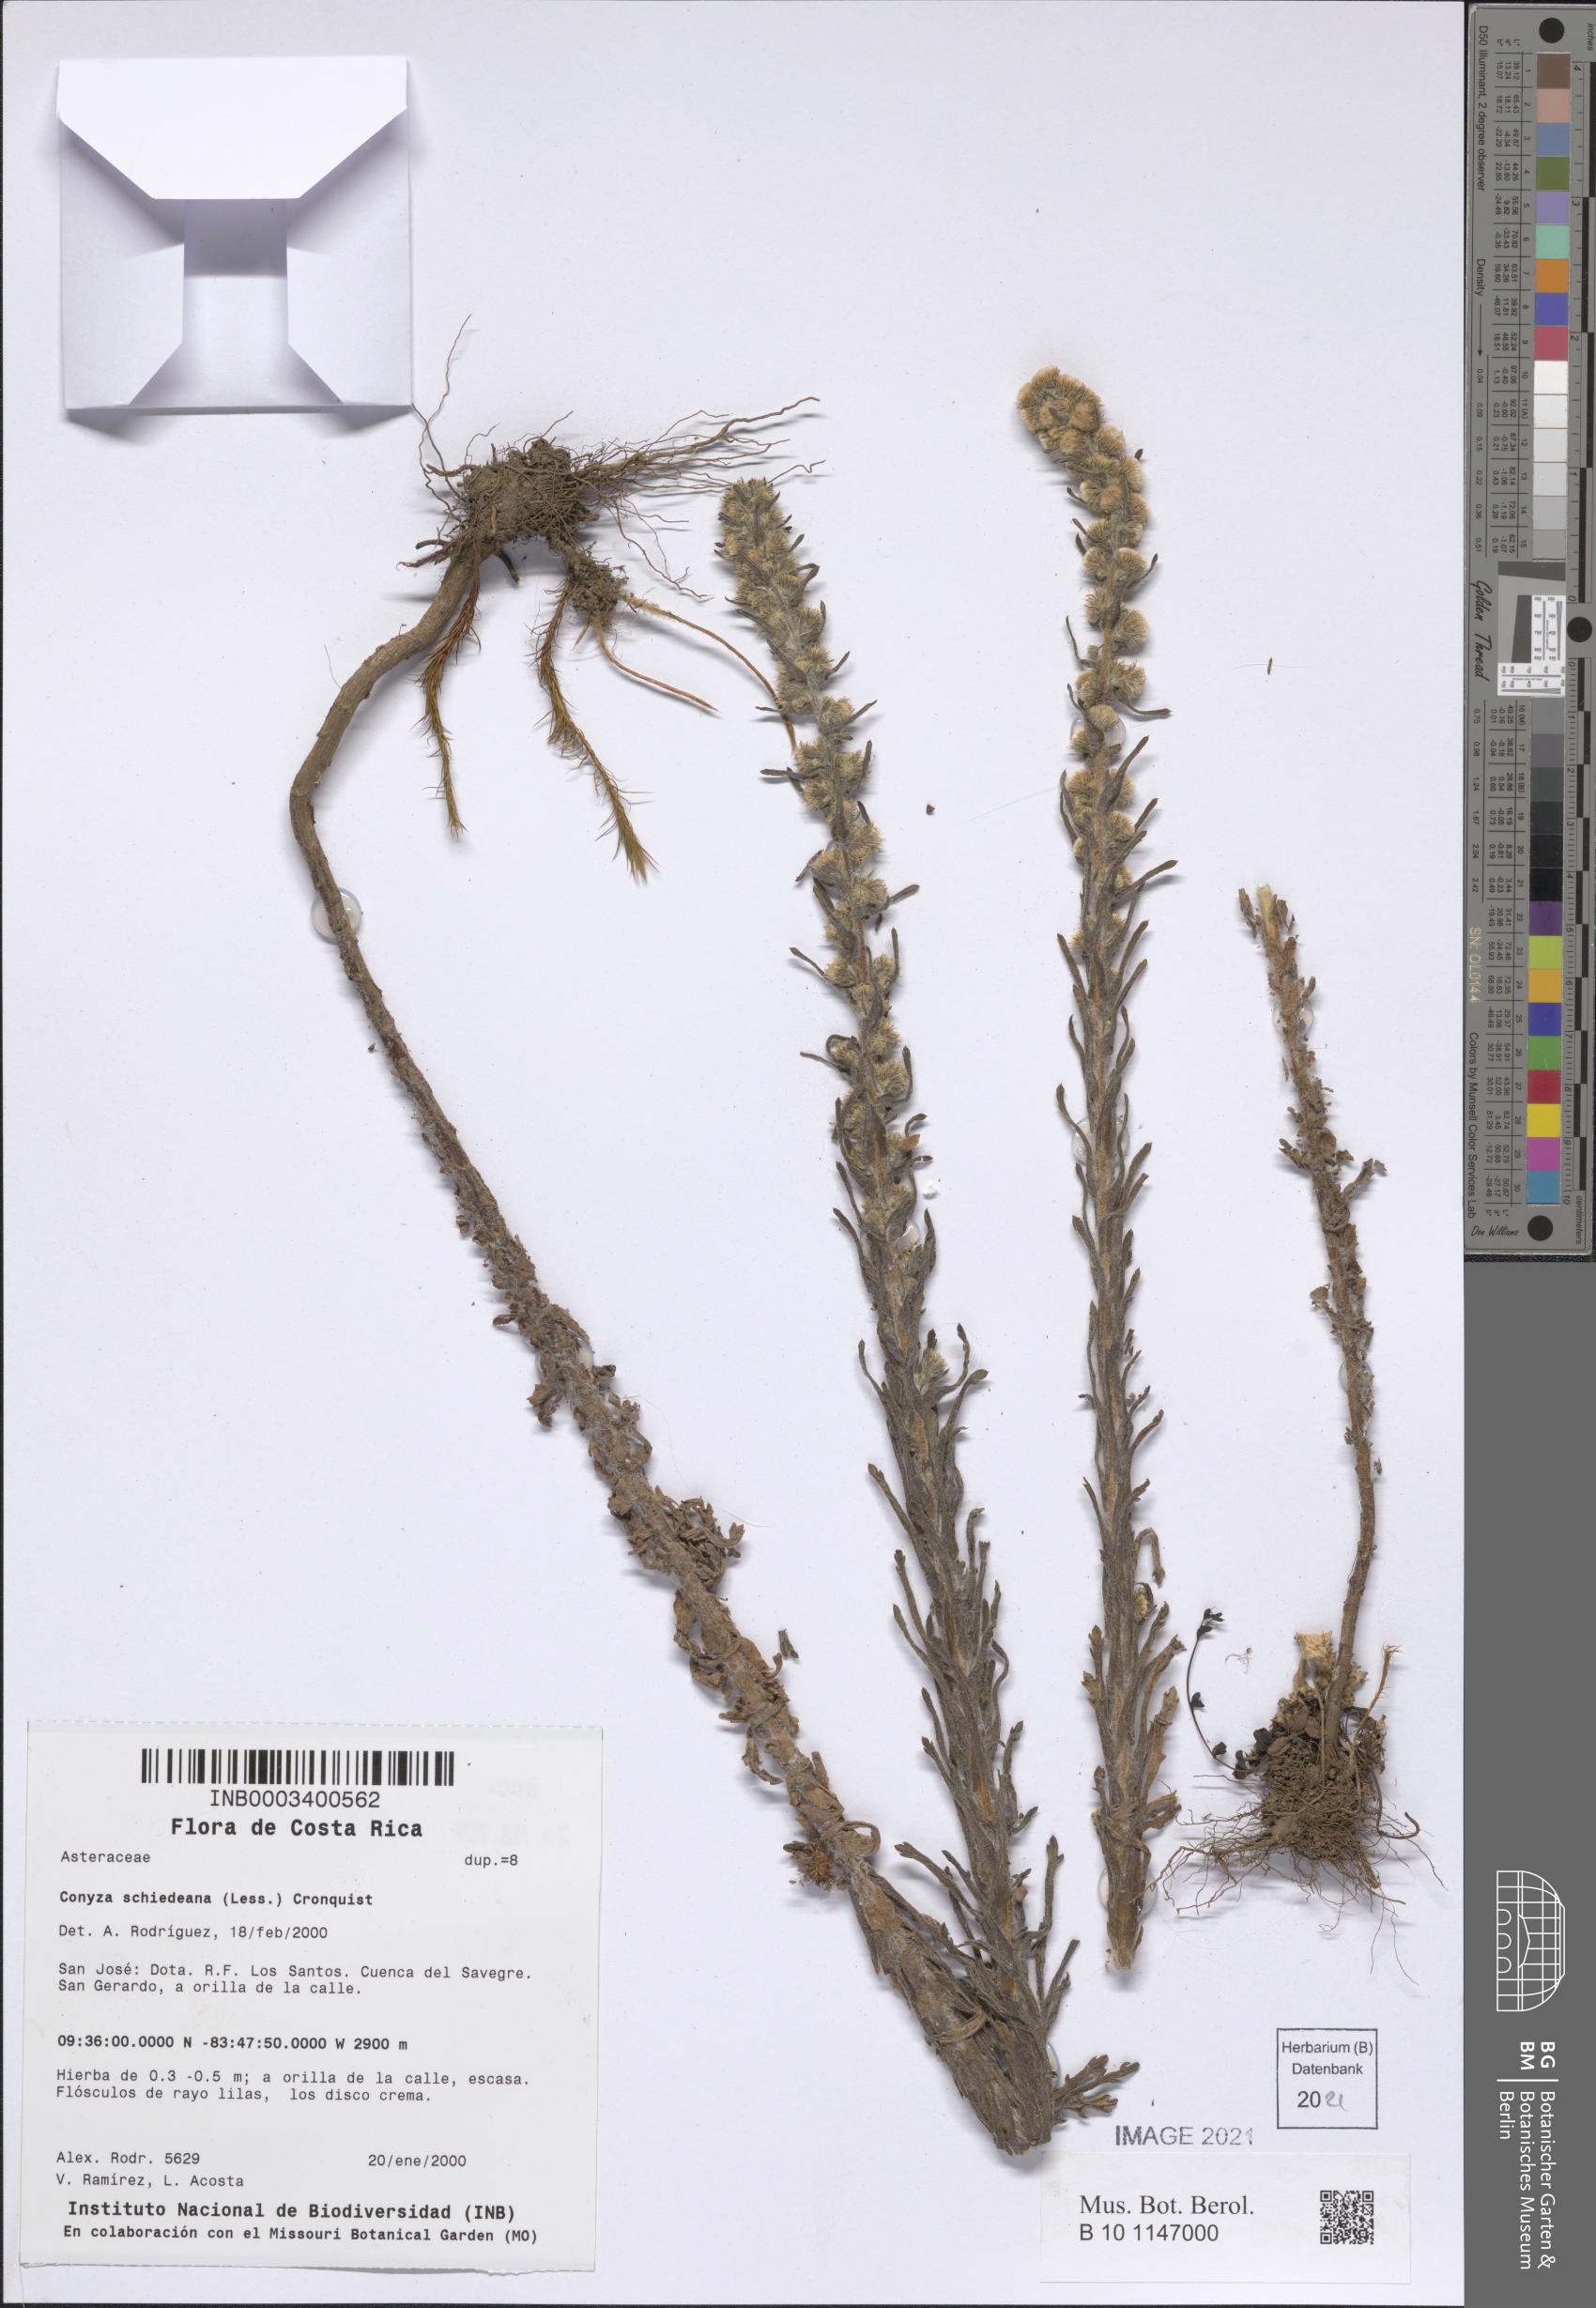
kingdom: Plantae
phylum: Tracheophyta
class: Magnoliopsida
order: Asterales
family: Asteraceae
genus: Laennecia
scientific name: Laennecia schiedeana
